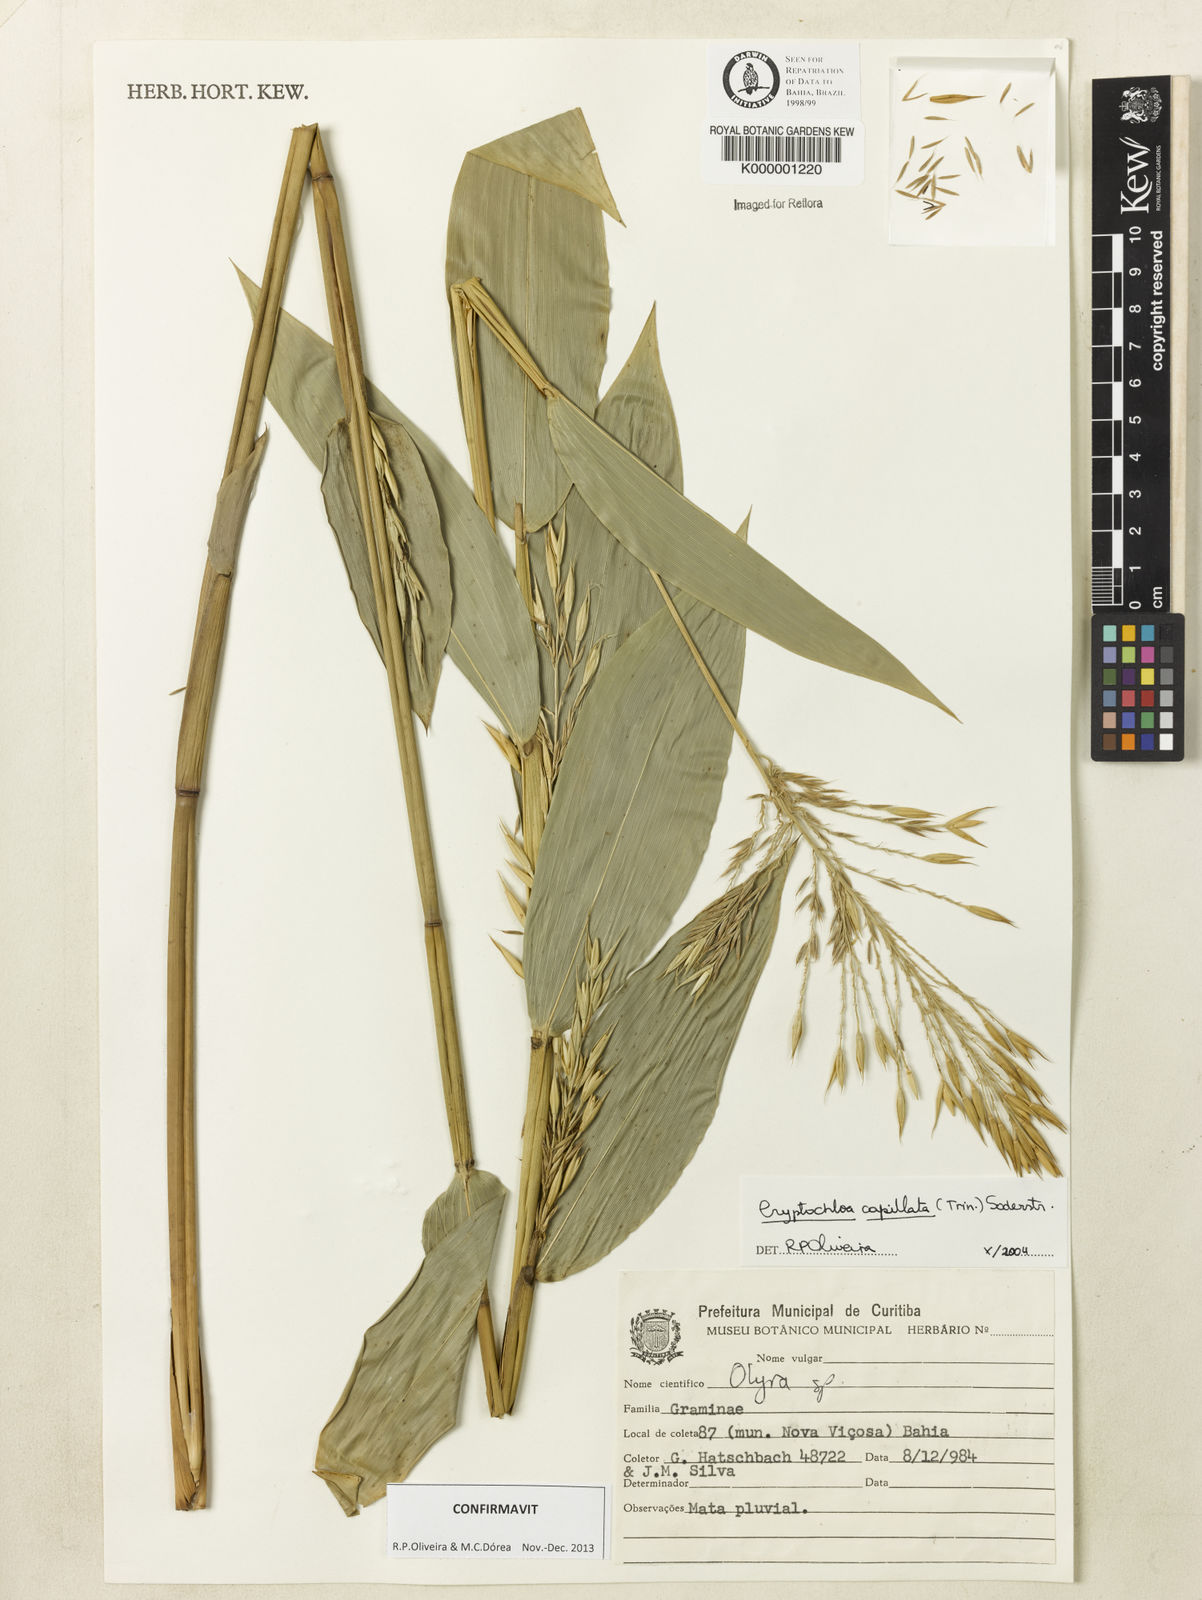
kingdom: Plantae
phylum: Tracheophyta
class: Liliopsida
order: Poales
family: Poaceae
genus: Cryptochloa
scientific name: Cryptochloa capillata
